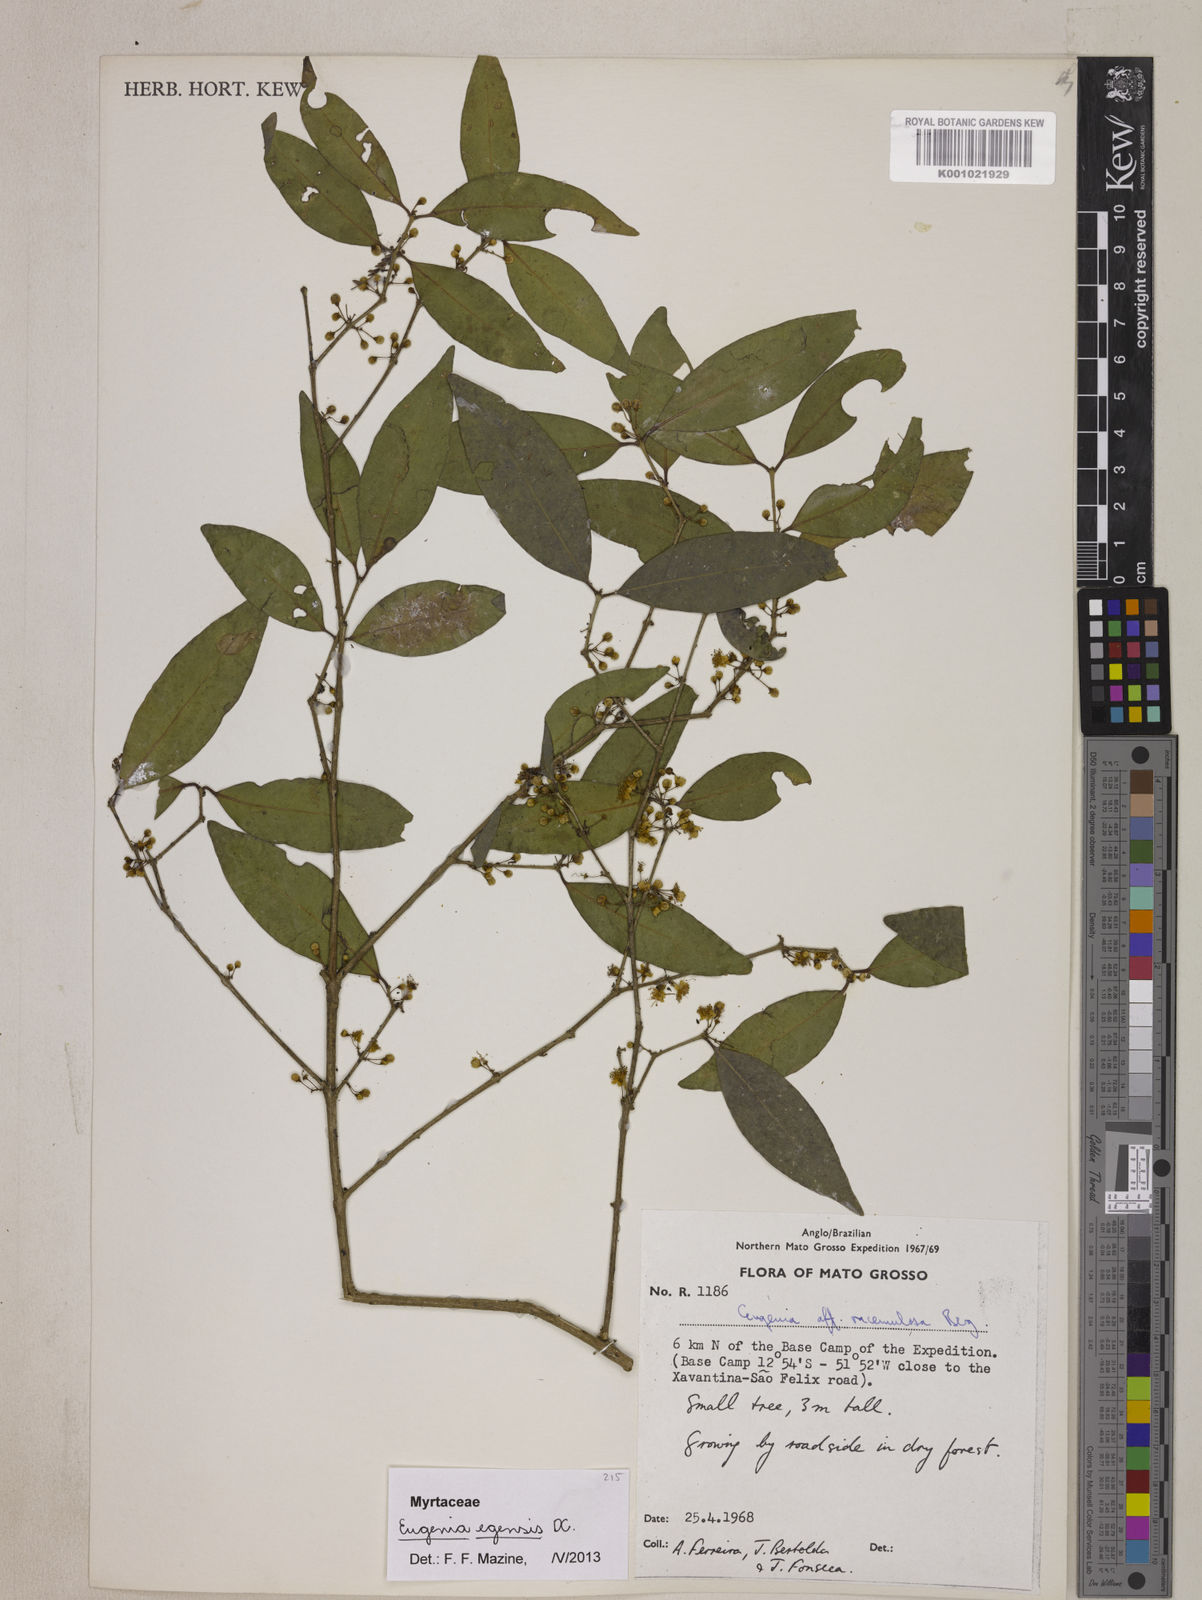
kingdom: Plantae
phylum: Tracheophyta
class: Magnoliopsida
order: Myrtales
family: Myrtaceae
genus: Eugenia
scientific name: Eugenia egensis
